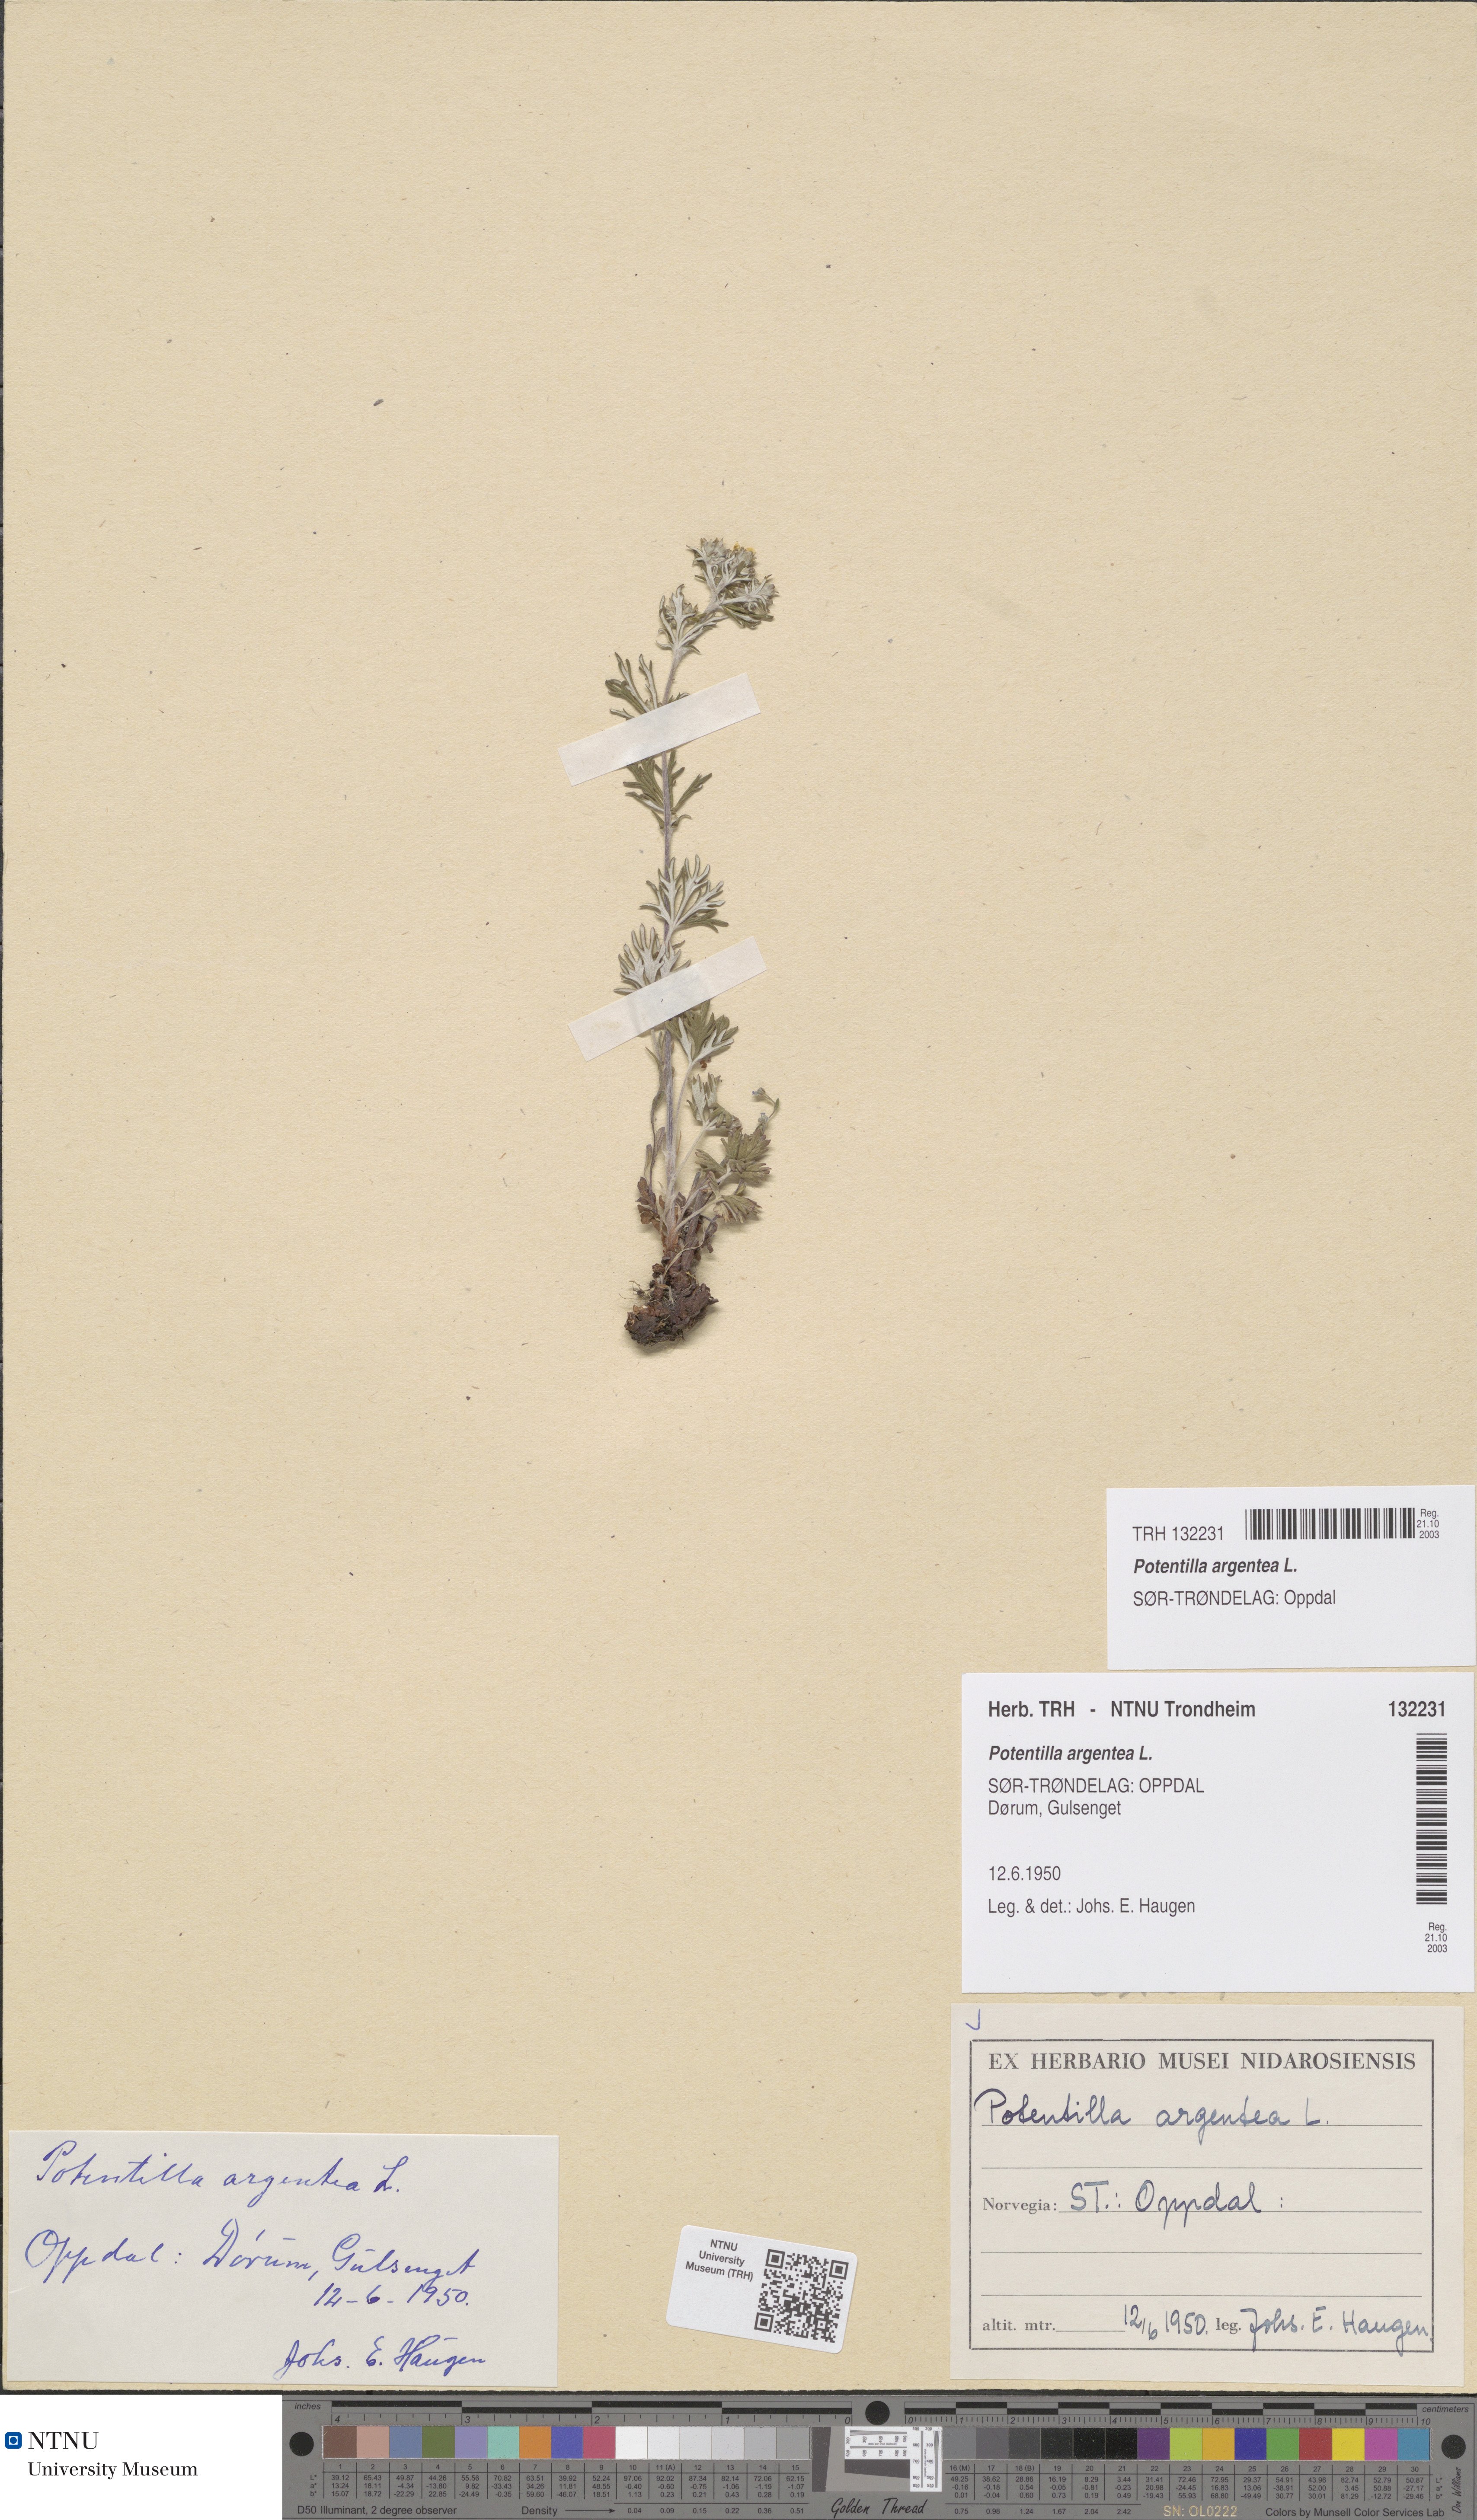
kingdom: Plantae
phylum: Tracheophyta
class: Magnoliopsida
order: Rosales
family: Rosaceae
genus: Potentilla
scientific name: Potentilla argentea
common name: Hoary cinquefoil
